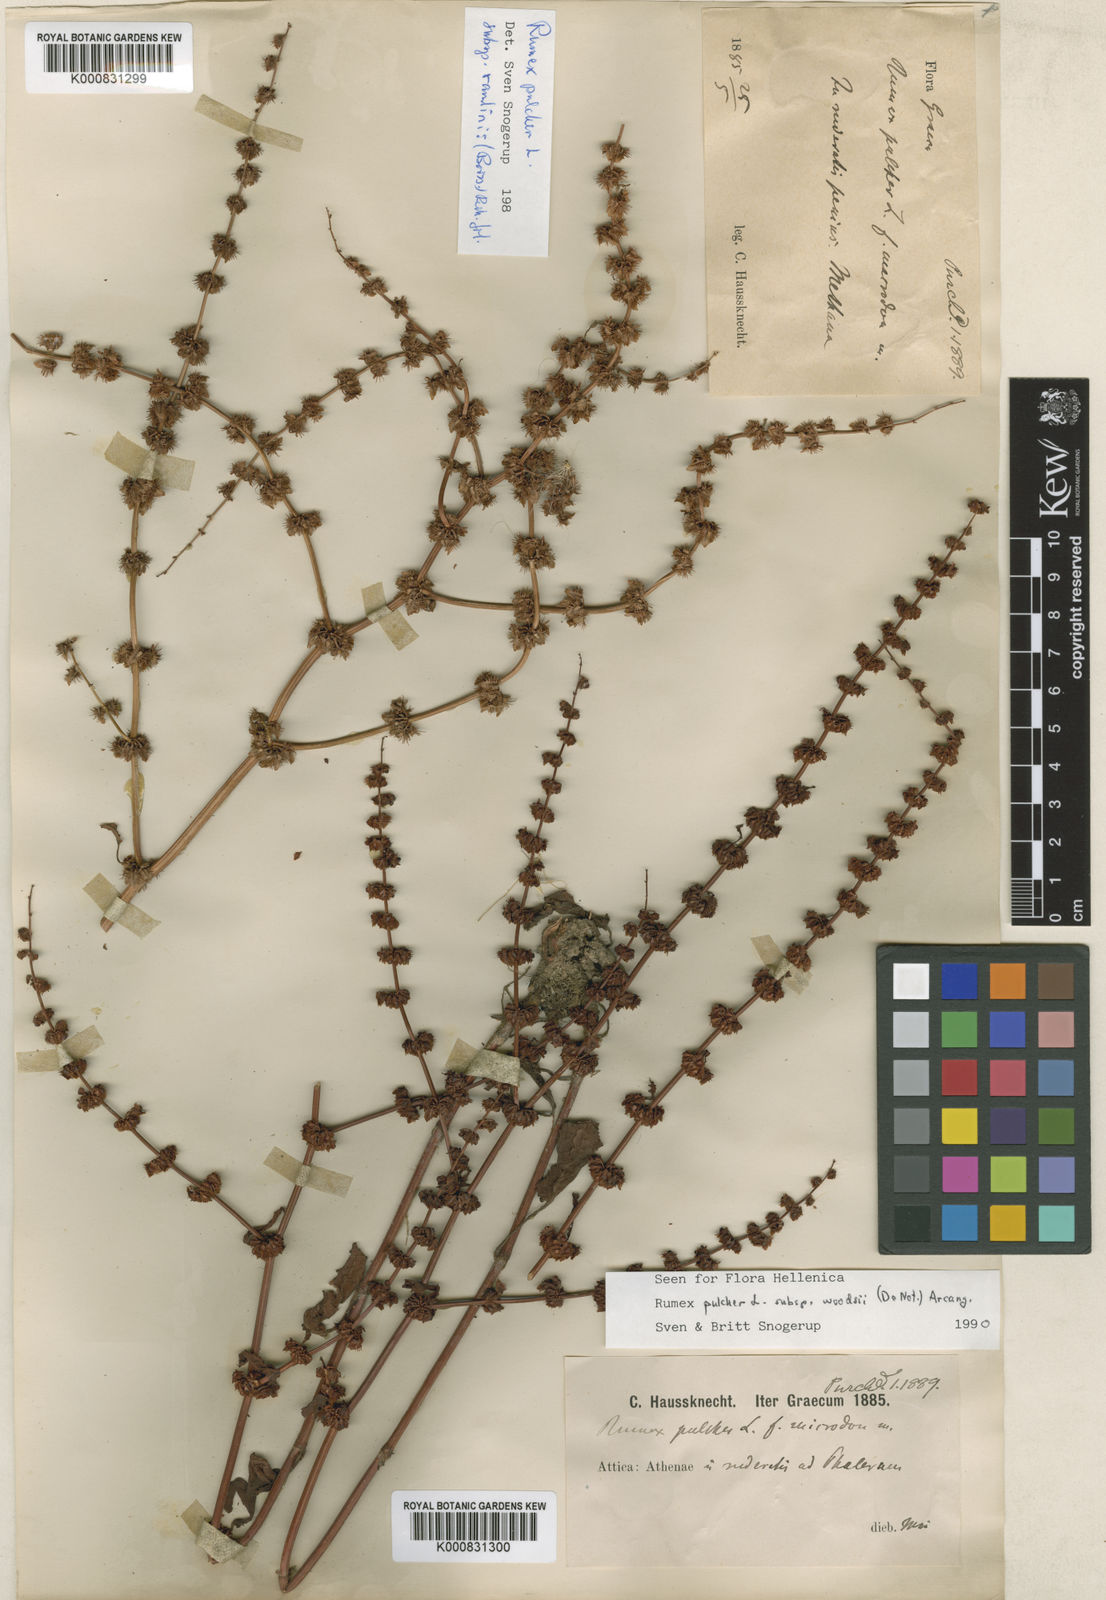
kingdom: Plantae
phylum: Tracheophyta
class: Magnoliopsida
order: Caryophyllales
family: Polygonaceae
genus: Rumex
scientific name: Rumex pulcher
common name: Fiddle dock
